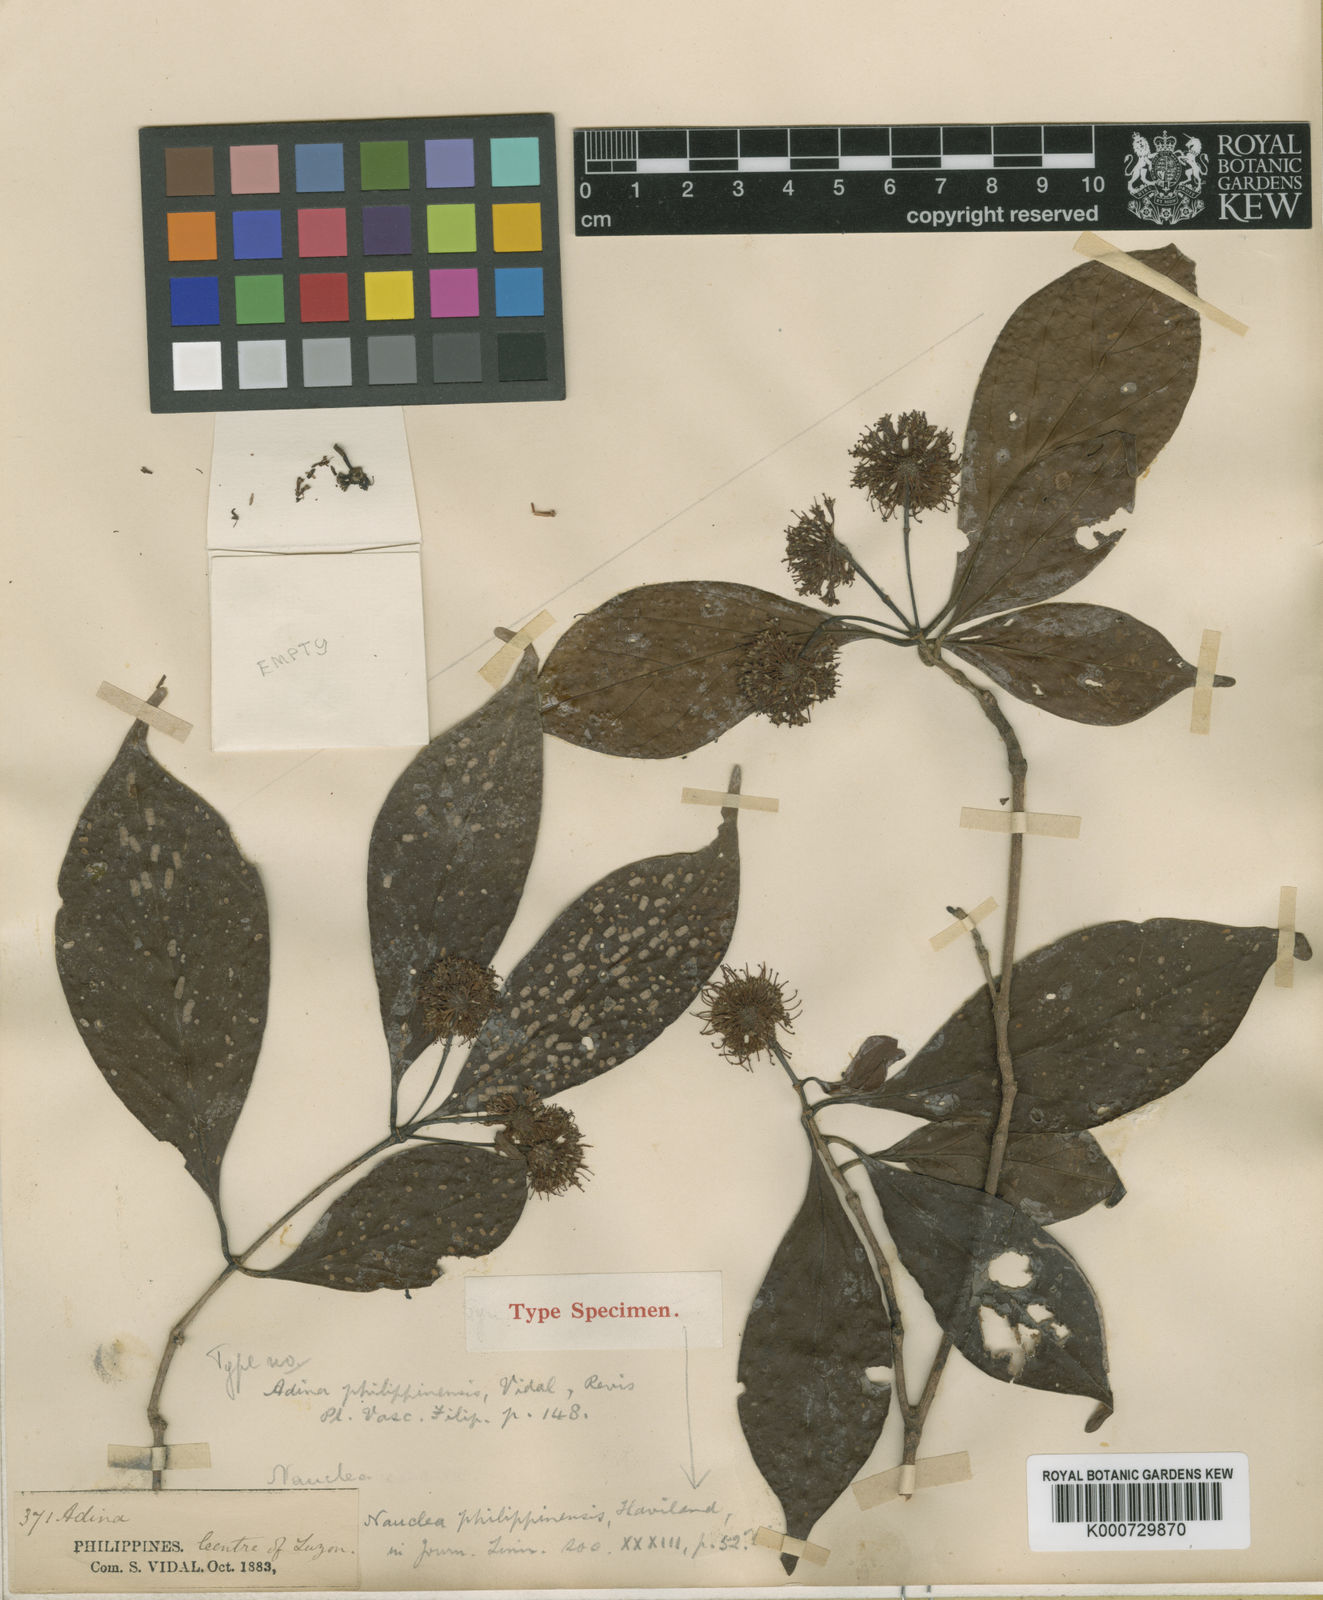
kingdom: Plantae
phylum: Tracheophyta
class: Magnoliopsida
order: Gentianales
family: Rubiaceae
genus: Neonauclea
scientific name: Neonauclea lanceolata
